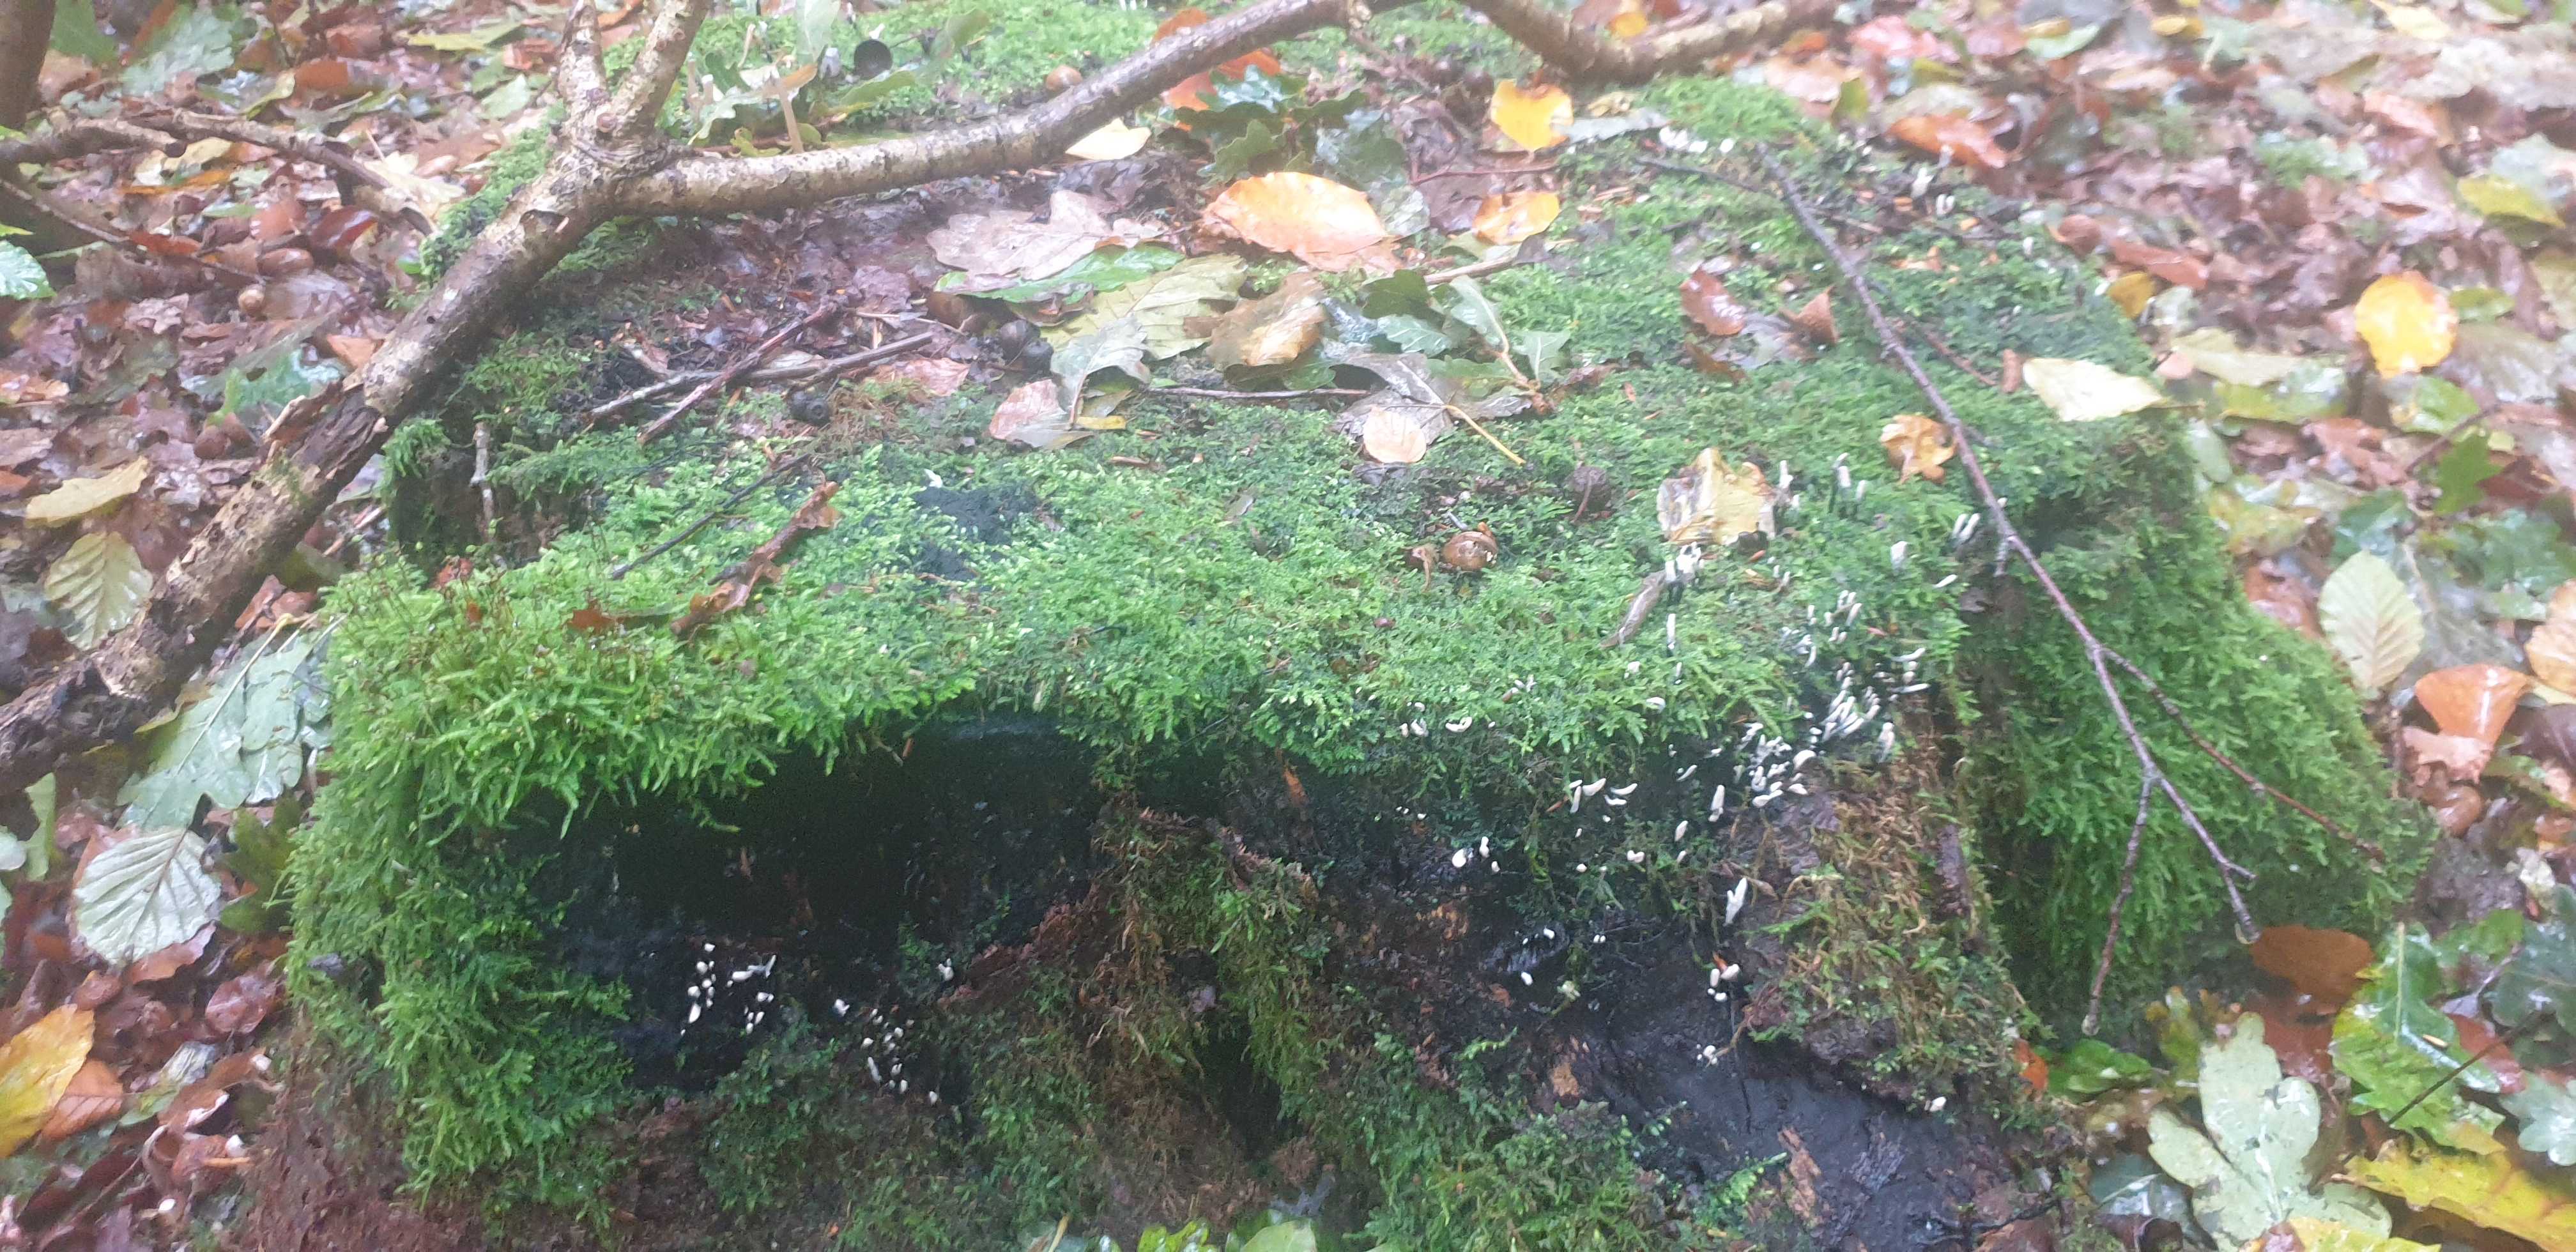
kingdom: Fungi
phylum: Ascomycota
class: Sordariomycetes
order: Xylariales
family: Xylariaceae
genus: Xylaria
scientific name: Xylaria hypoxylon
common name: grenet stødsvamp
